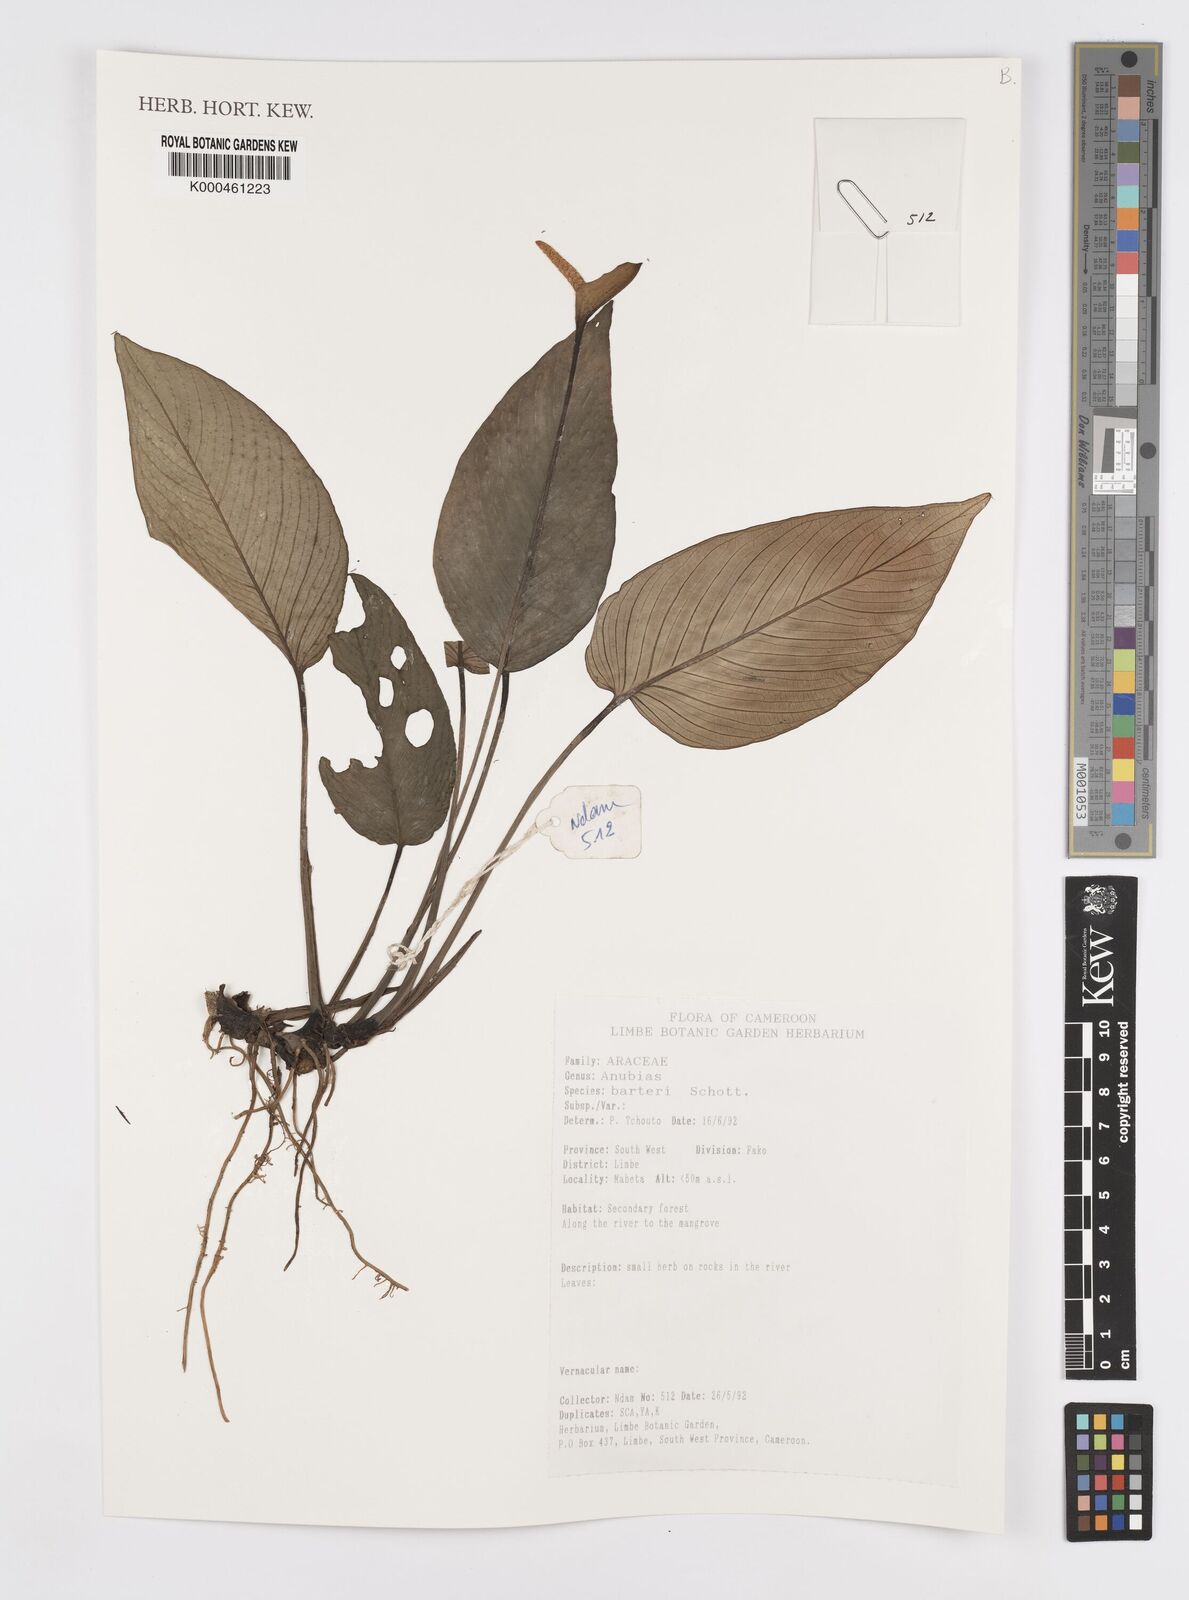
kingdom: Plantae
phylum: Tracheophyta
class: Liliopsida
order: Alismatales
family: Araceae
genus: Anubias
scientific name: Anubias barteri
